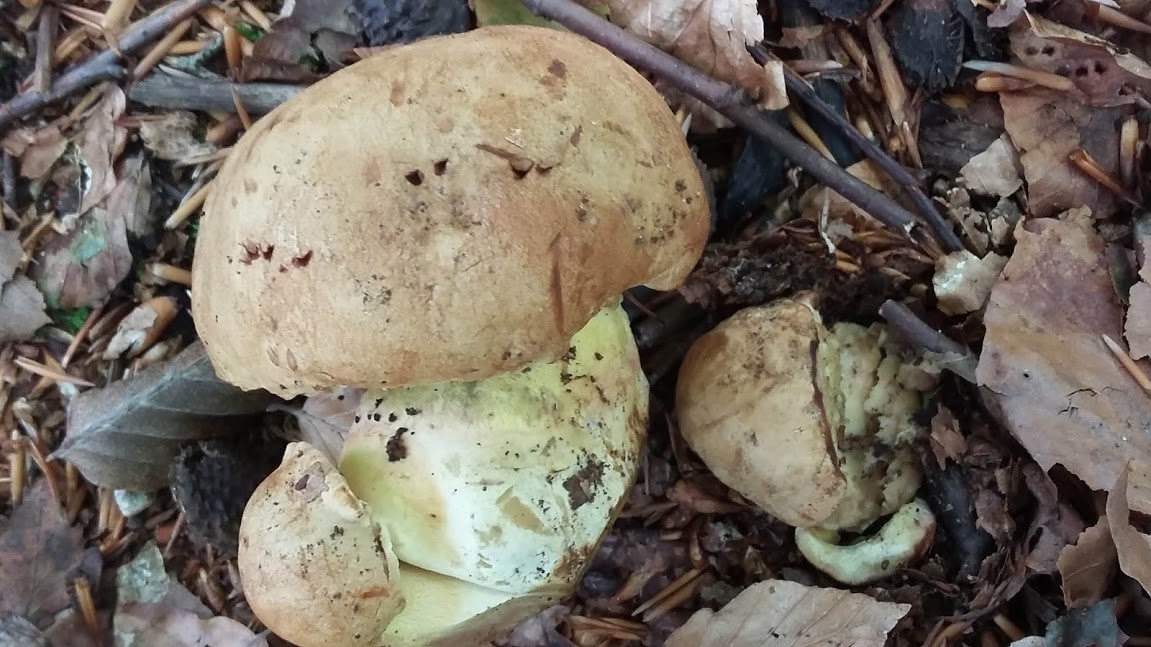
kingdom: Fungi
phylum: Basidiomycota
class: Agaricomycetes
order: Boletales
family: Boletaceae
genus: Butyriboletus
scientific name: Butyriboletus appendiculatus
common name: tenstokket rørhat
